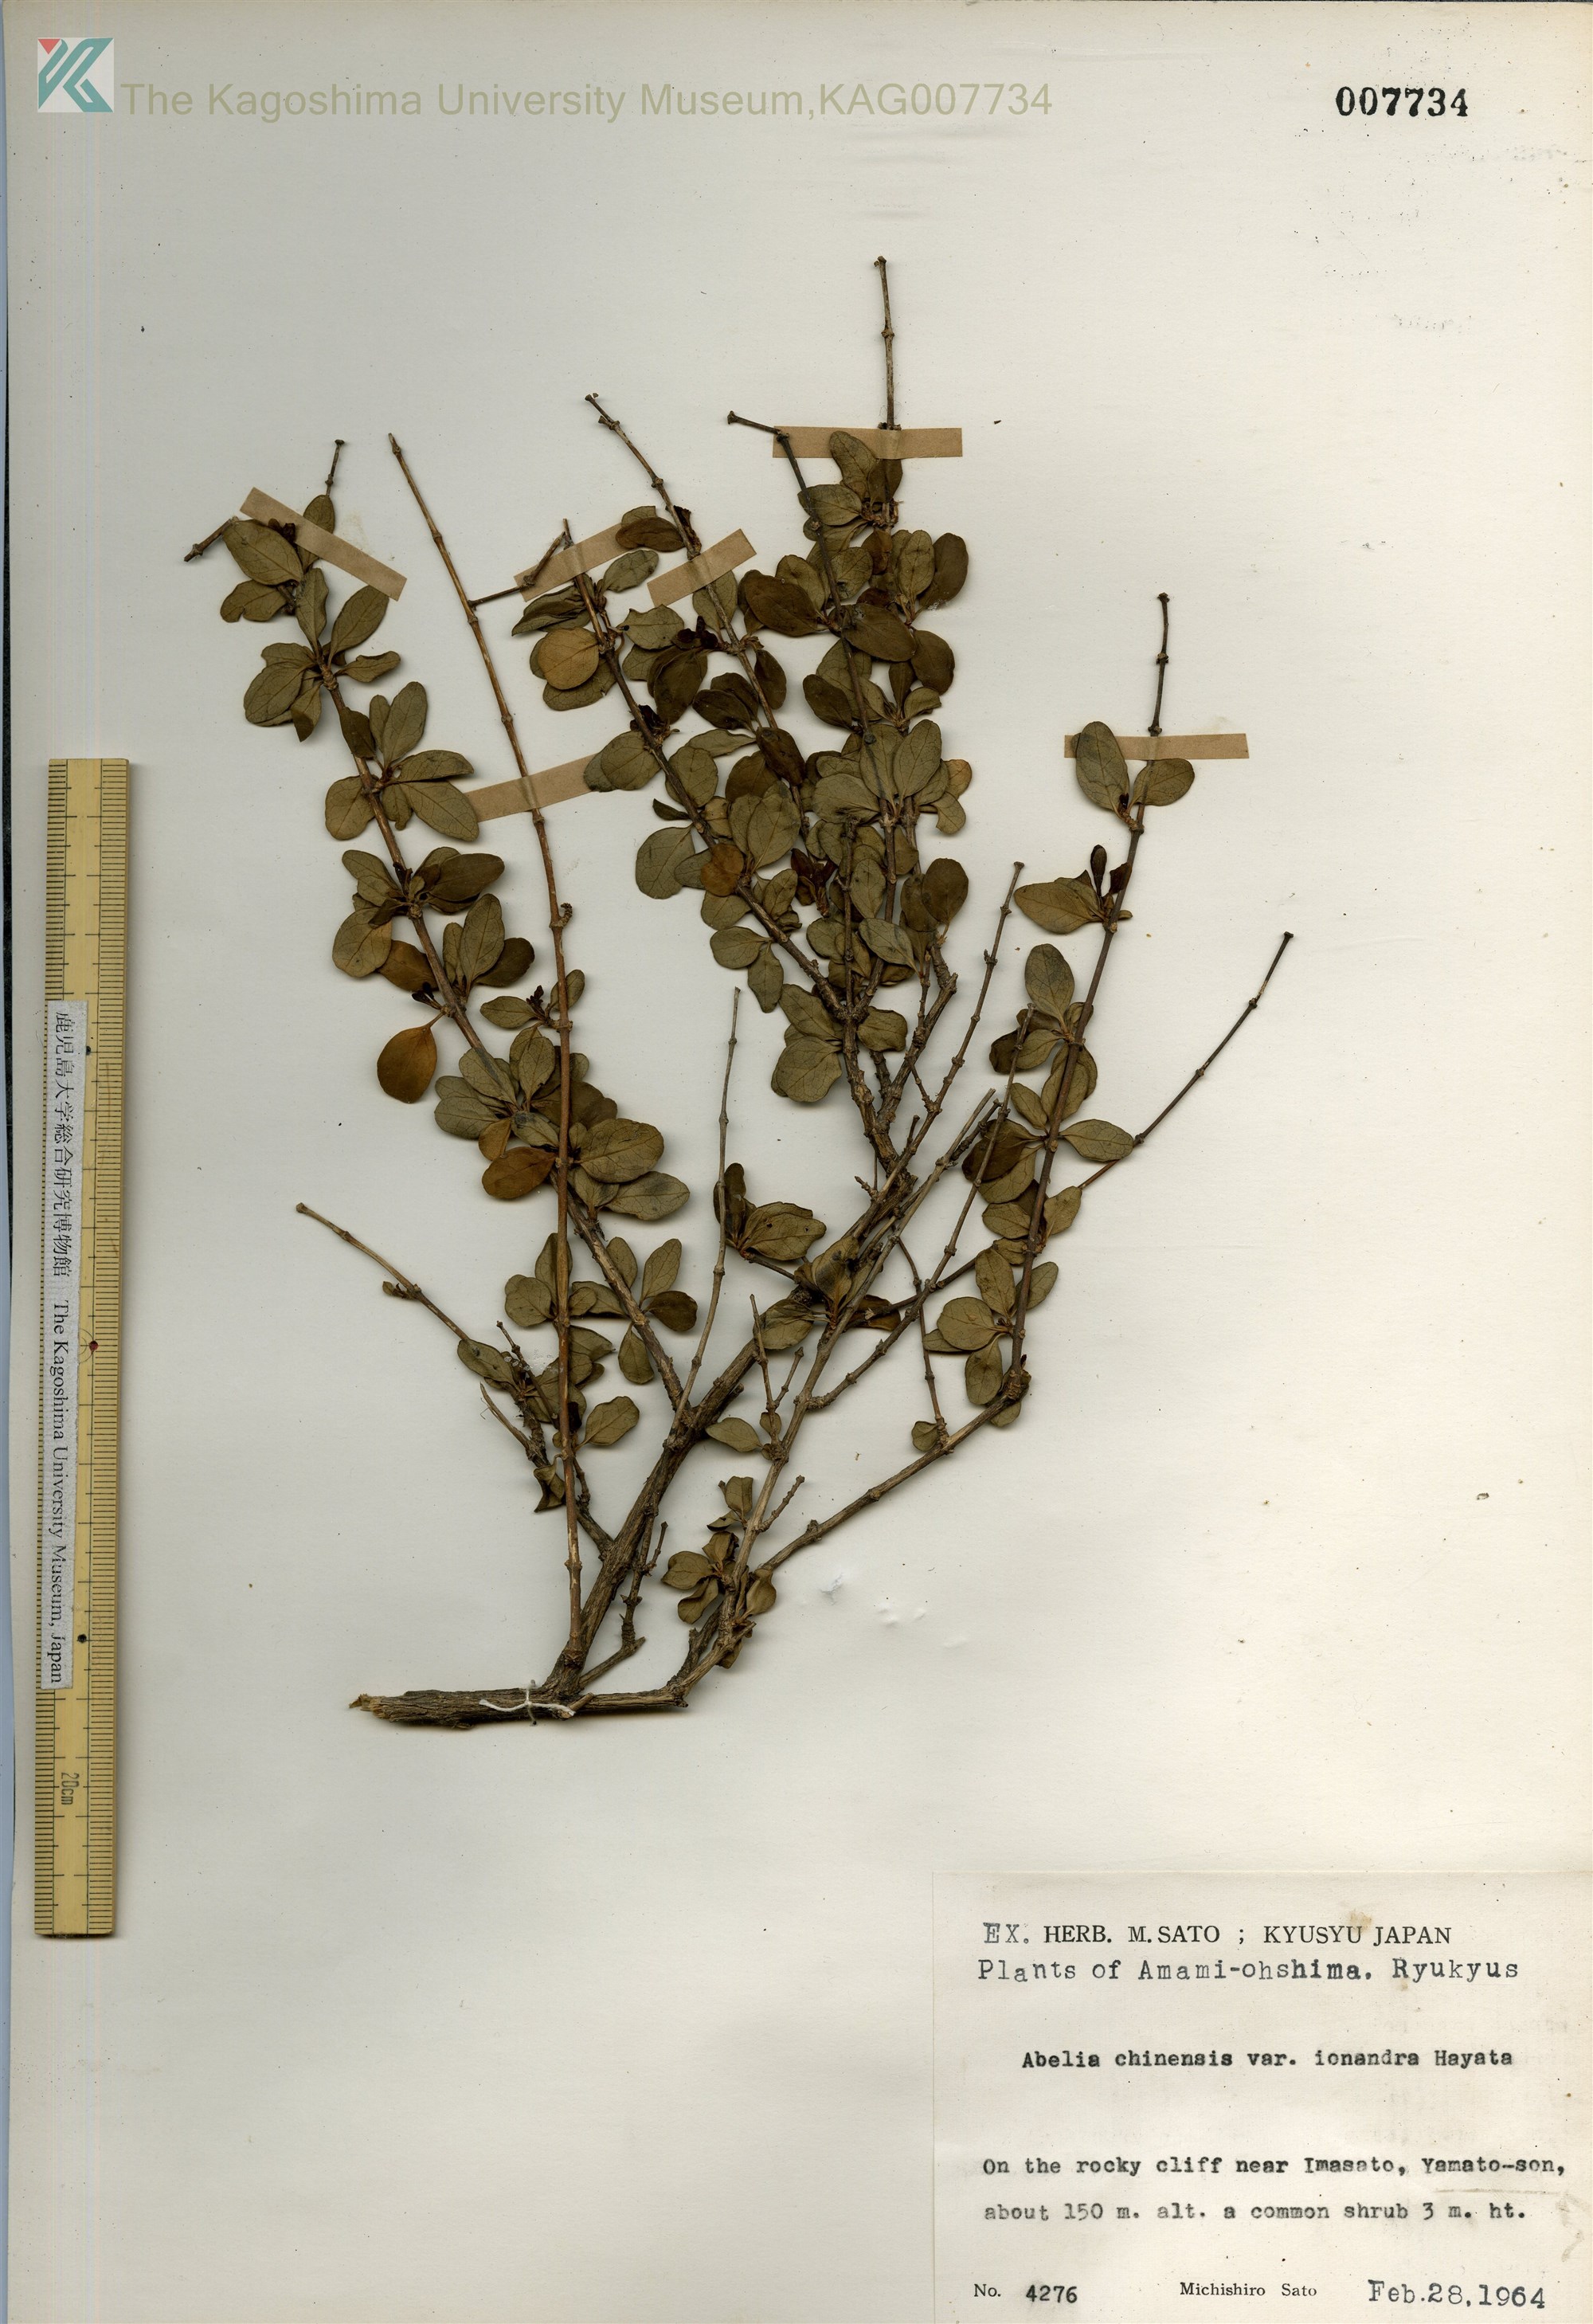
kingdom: Plantae
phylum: Tracheophyta
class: Magnoliopsida
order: Dipsacales
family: Caprifoliaceae
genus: Abelia
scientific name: Abelia chinensis
